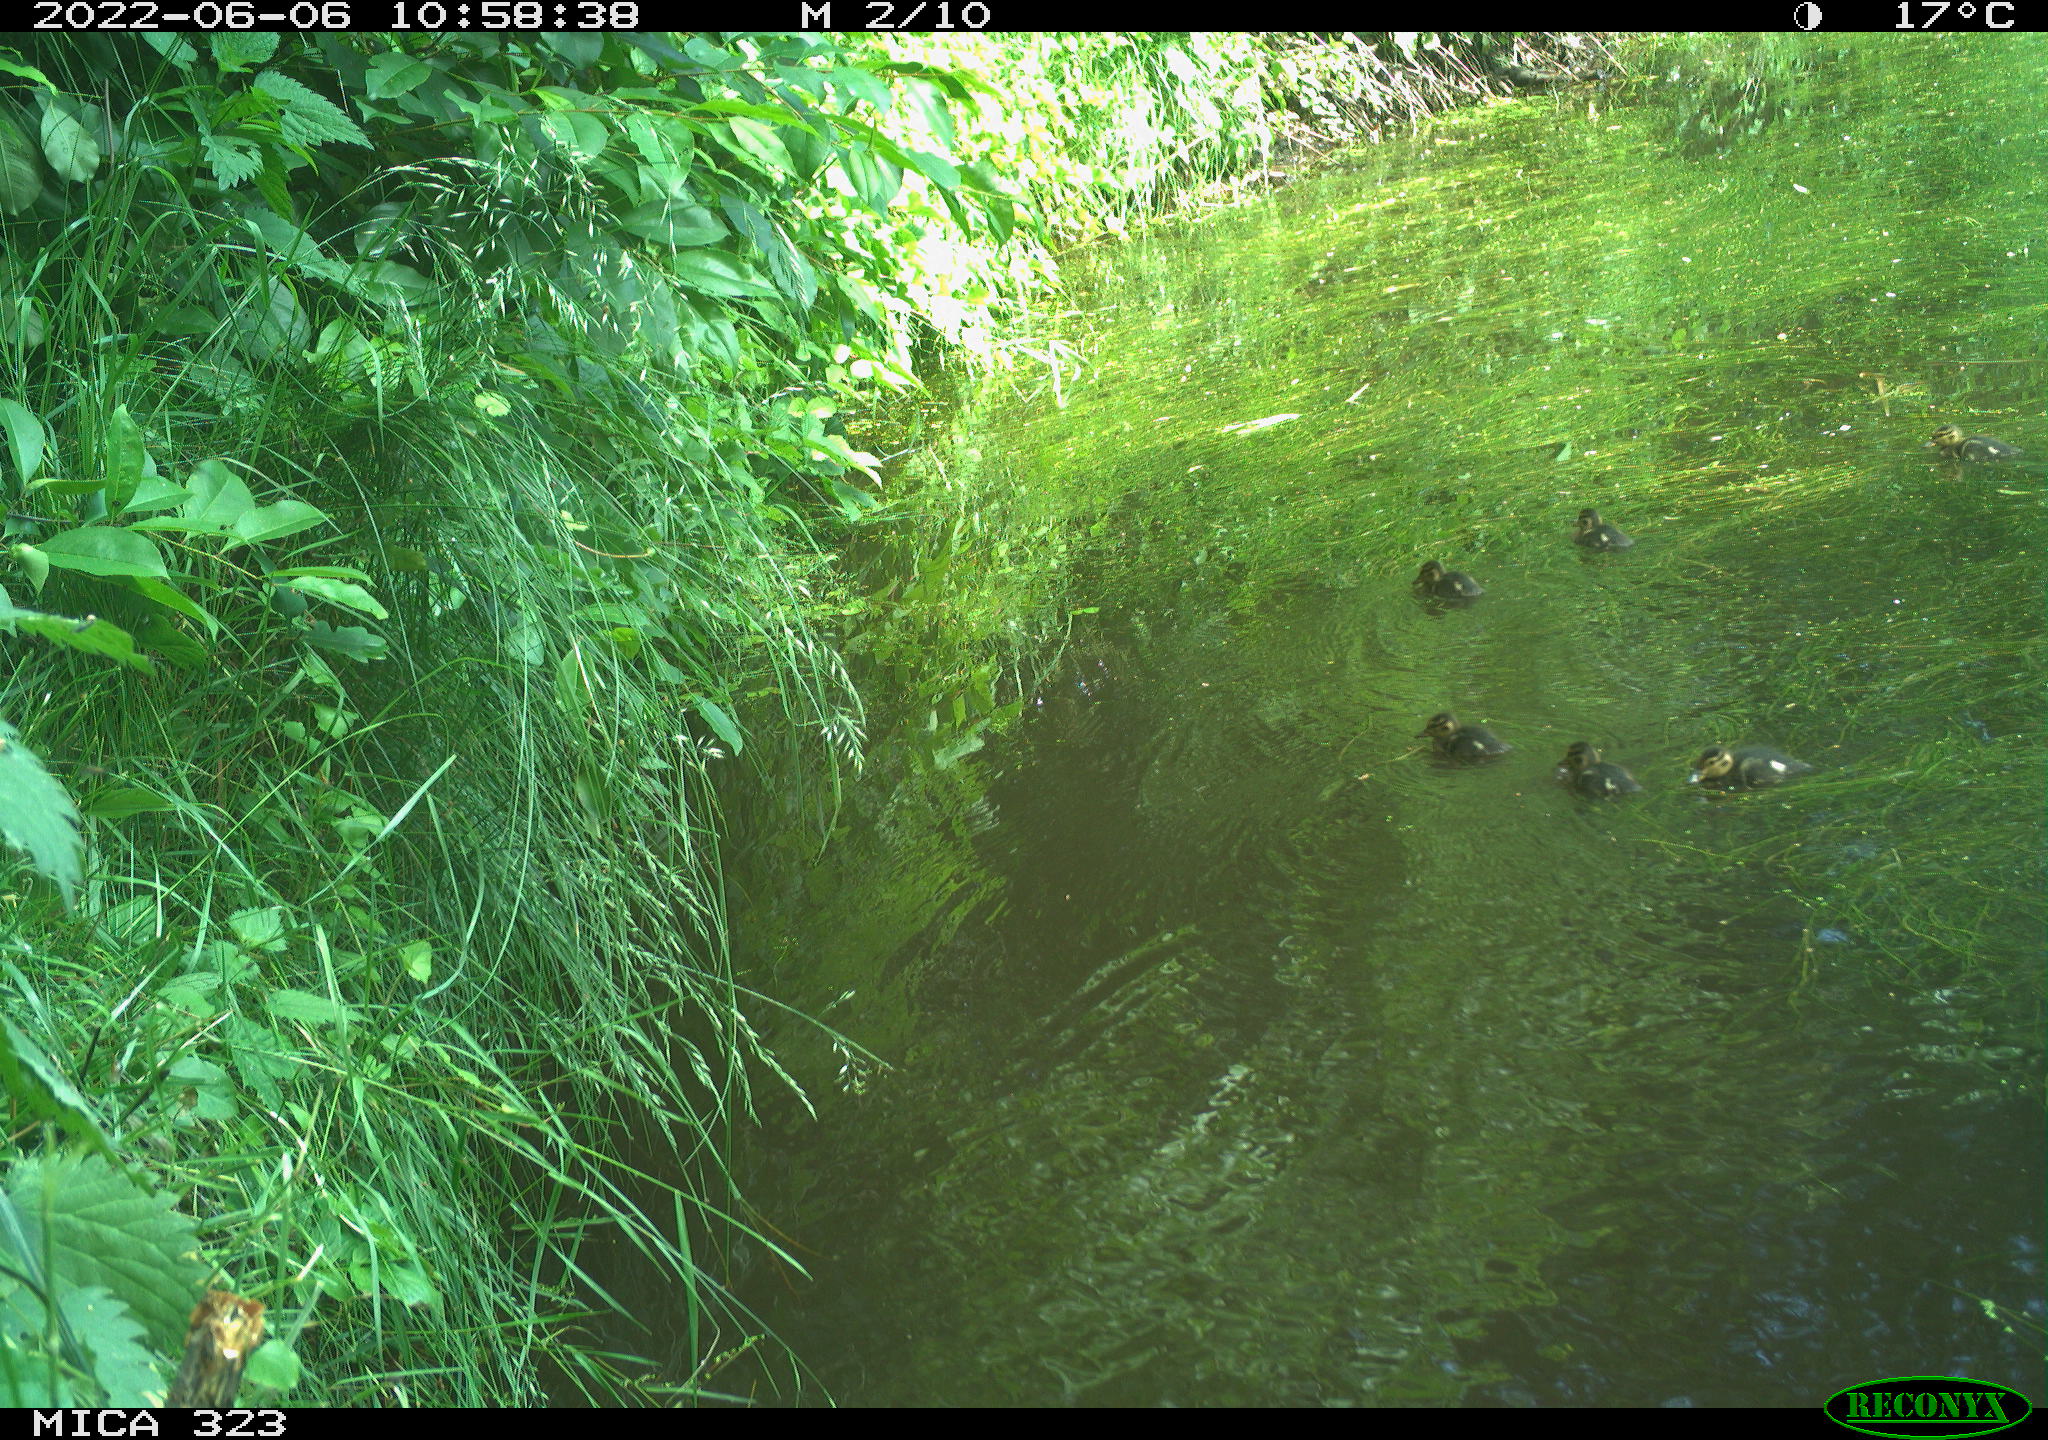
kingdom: Animalia
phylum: Chordata
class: Aves
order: Anseriformes
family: Anatidae
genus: Anas
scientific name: Anas platyrhynchos
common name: Mallard
